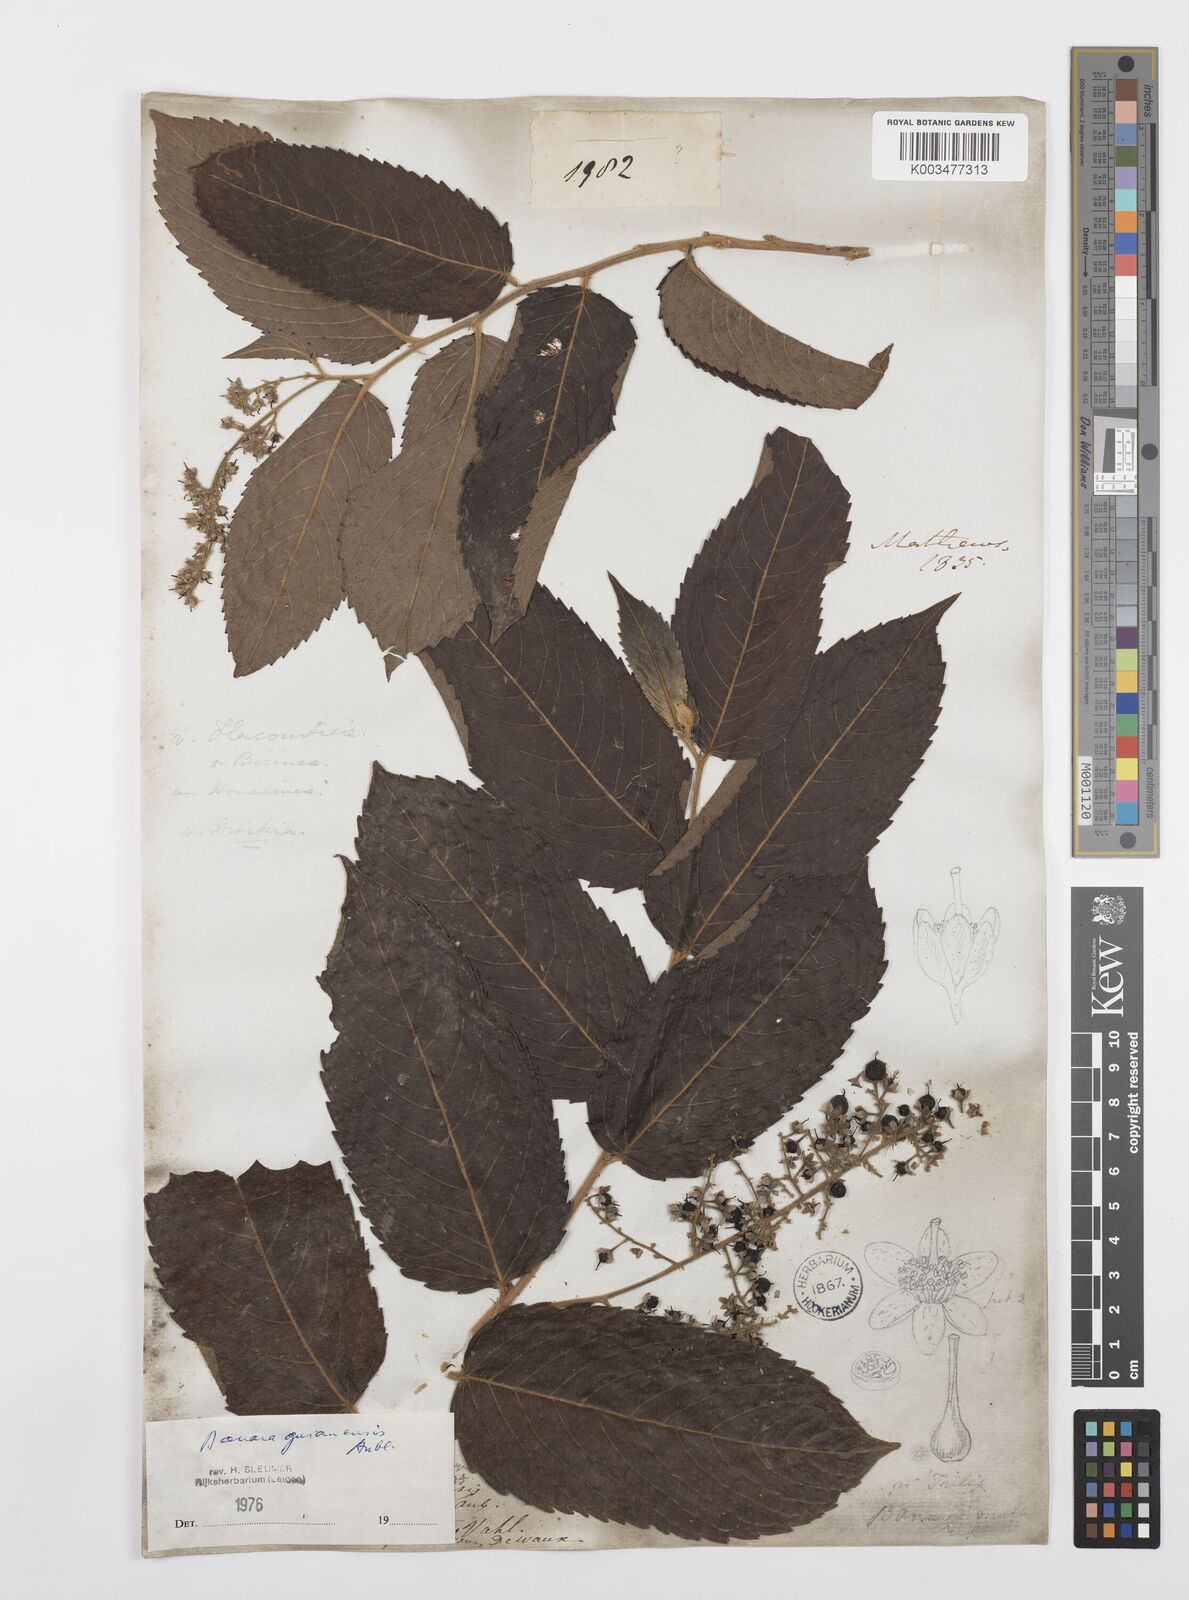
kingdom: Plantae
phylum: Tracheophyta
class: Magnoliopsida
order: Malpighiales
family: Salicaceae
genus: Banara
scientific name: Banara guianensis
